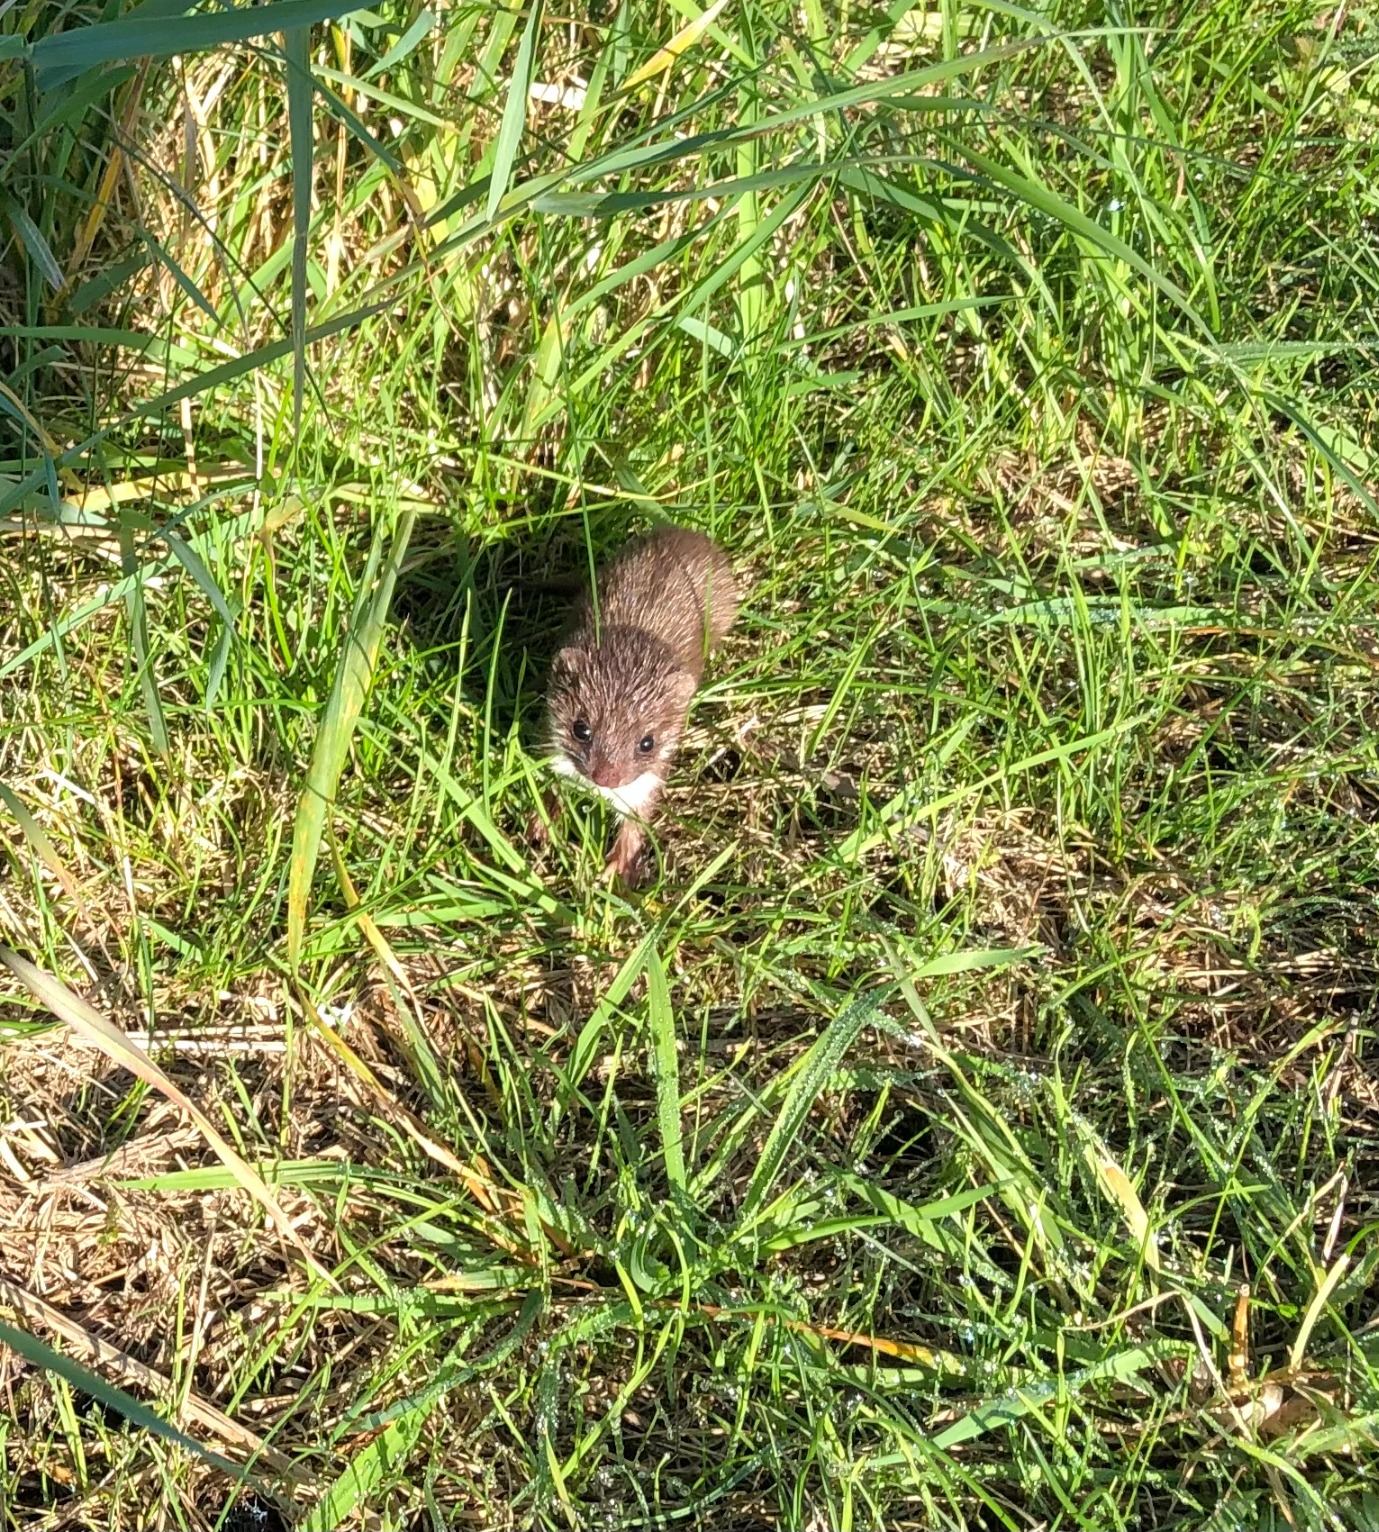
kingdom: Animalia
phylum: Chordata
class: Mammalia
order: Carnivora
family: Mustelidae
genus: Mustela
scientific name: Mustela nivalis
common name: Brud
